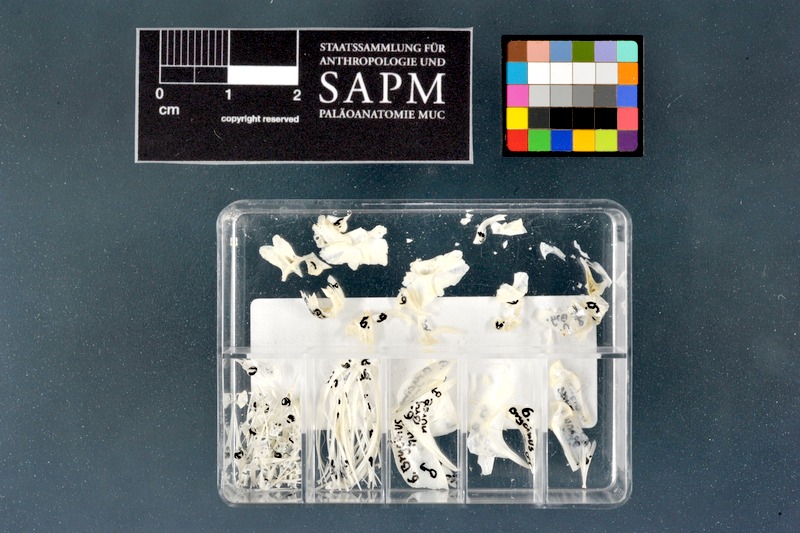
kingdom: Animalia
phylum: Chordata
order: Characiformes
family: Alestidae
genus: Brycinus
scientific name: Brycinus nurse
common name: Nurse tetra
